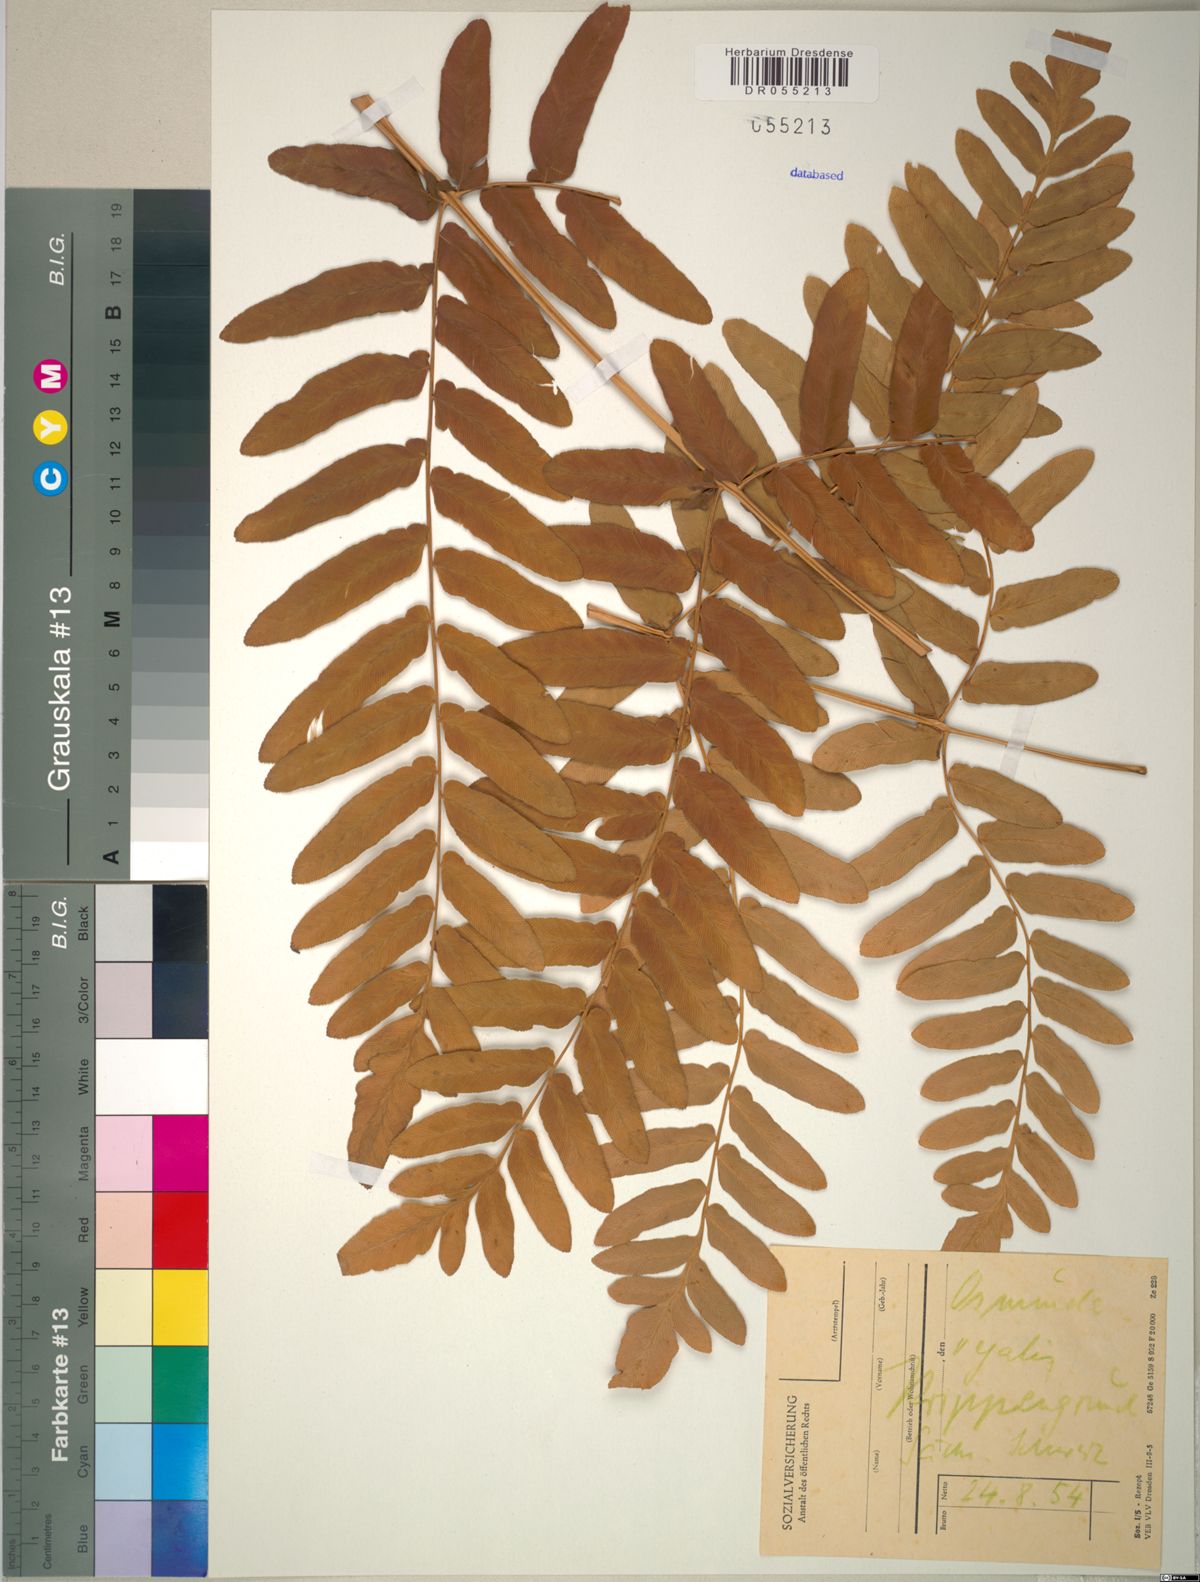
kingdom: Plantae
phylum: Tracheophyta
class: Polypodiopsida
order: Osmundales
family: Osmundaceae
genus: Osmunda
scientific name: Osmunda regalis
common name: Royal fern
